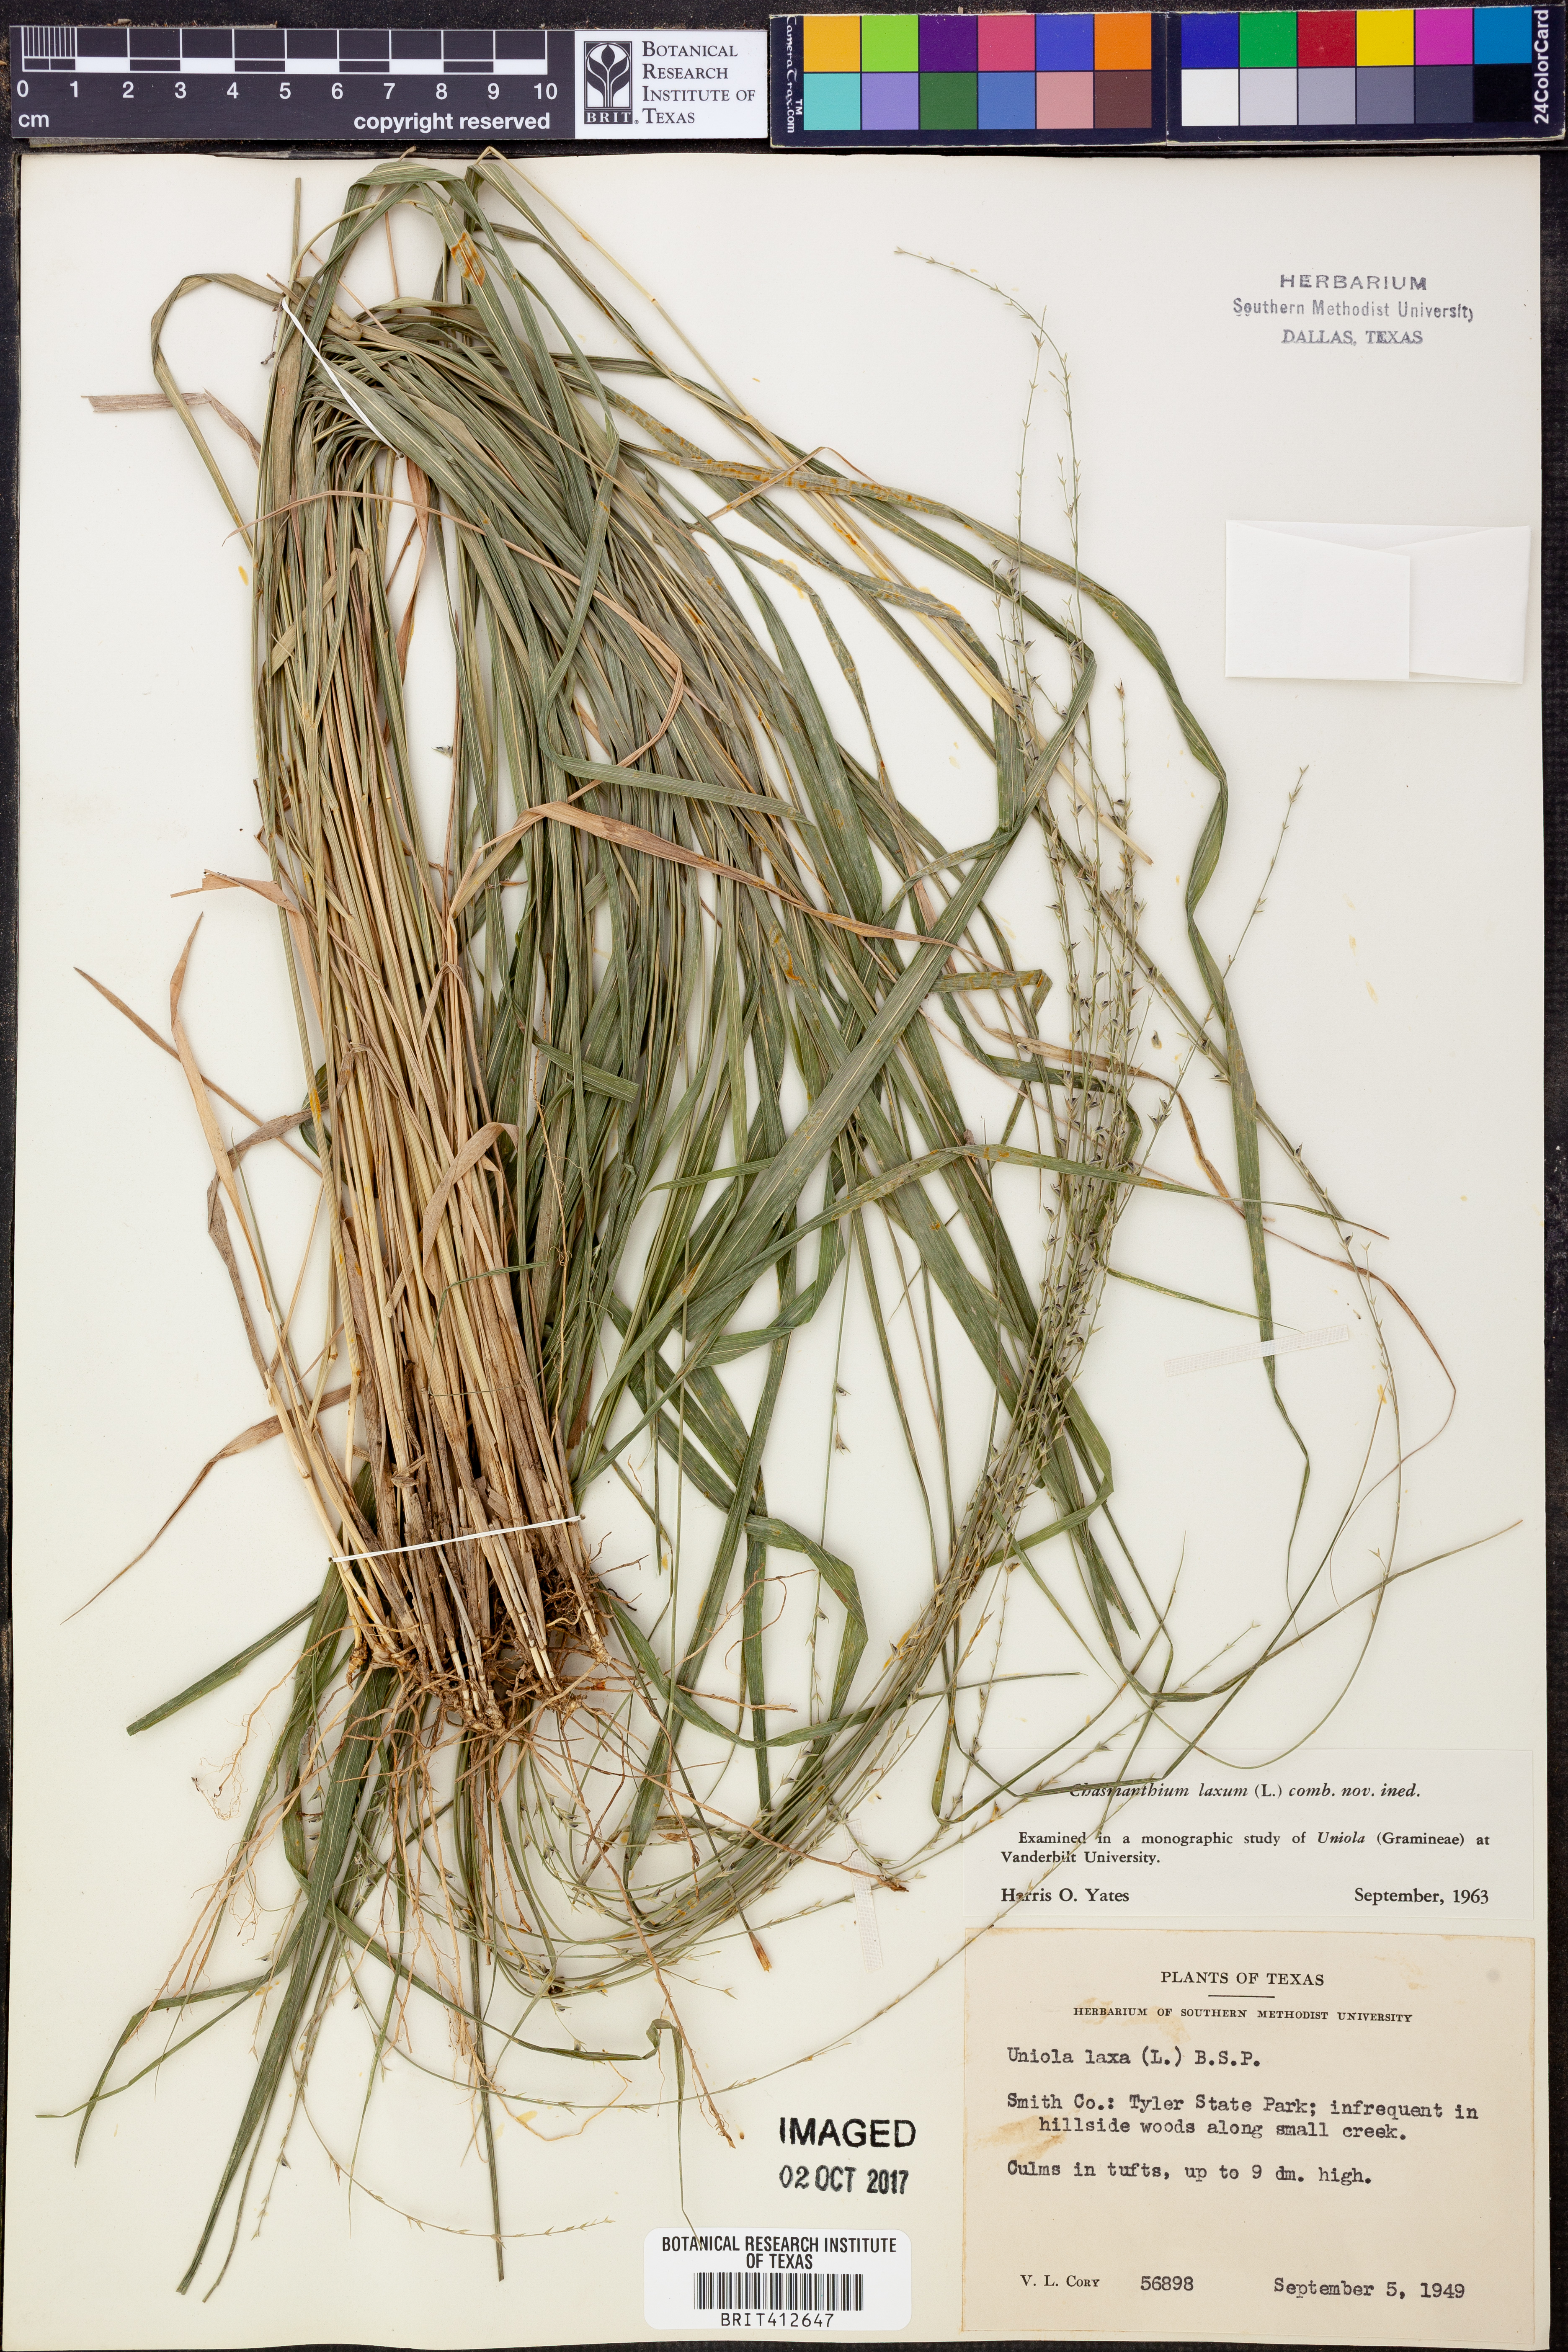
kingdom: Plantae
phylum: Tracheophyta
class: Liliopsida
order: Poales
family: Poaceae
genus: Chasmanthium
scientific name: Chasmanthium laxum
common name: Slender chasmanthium
